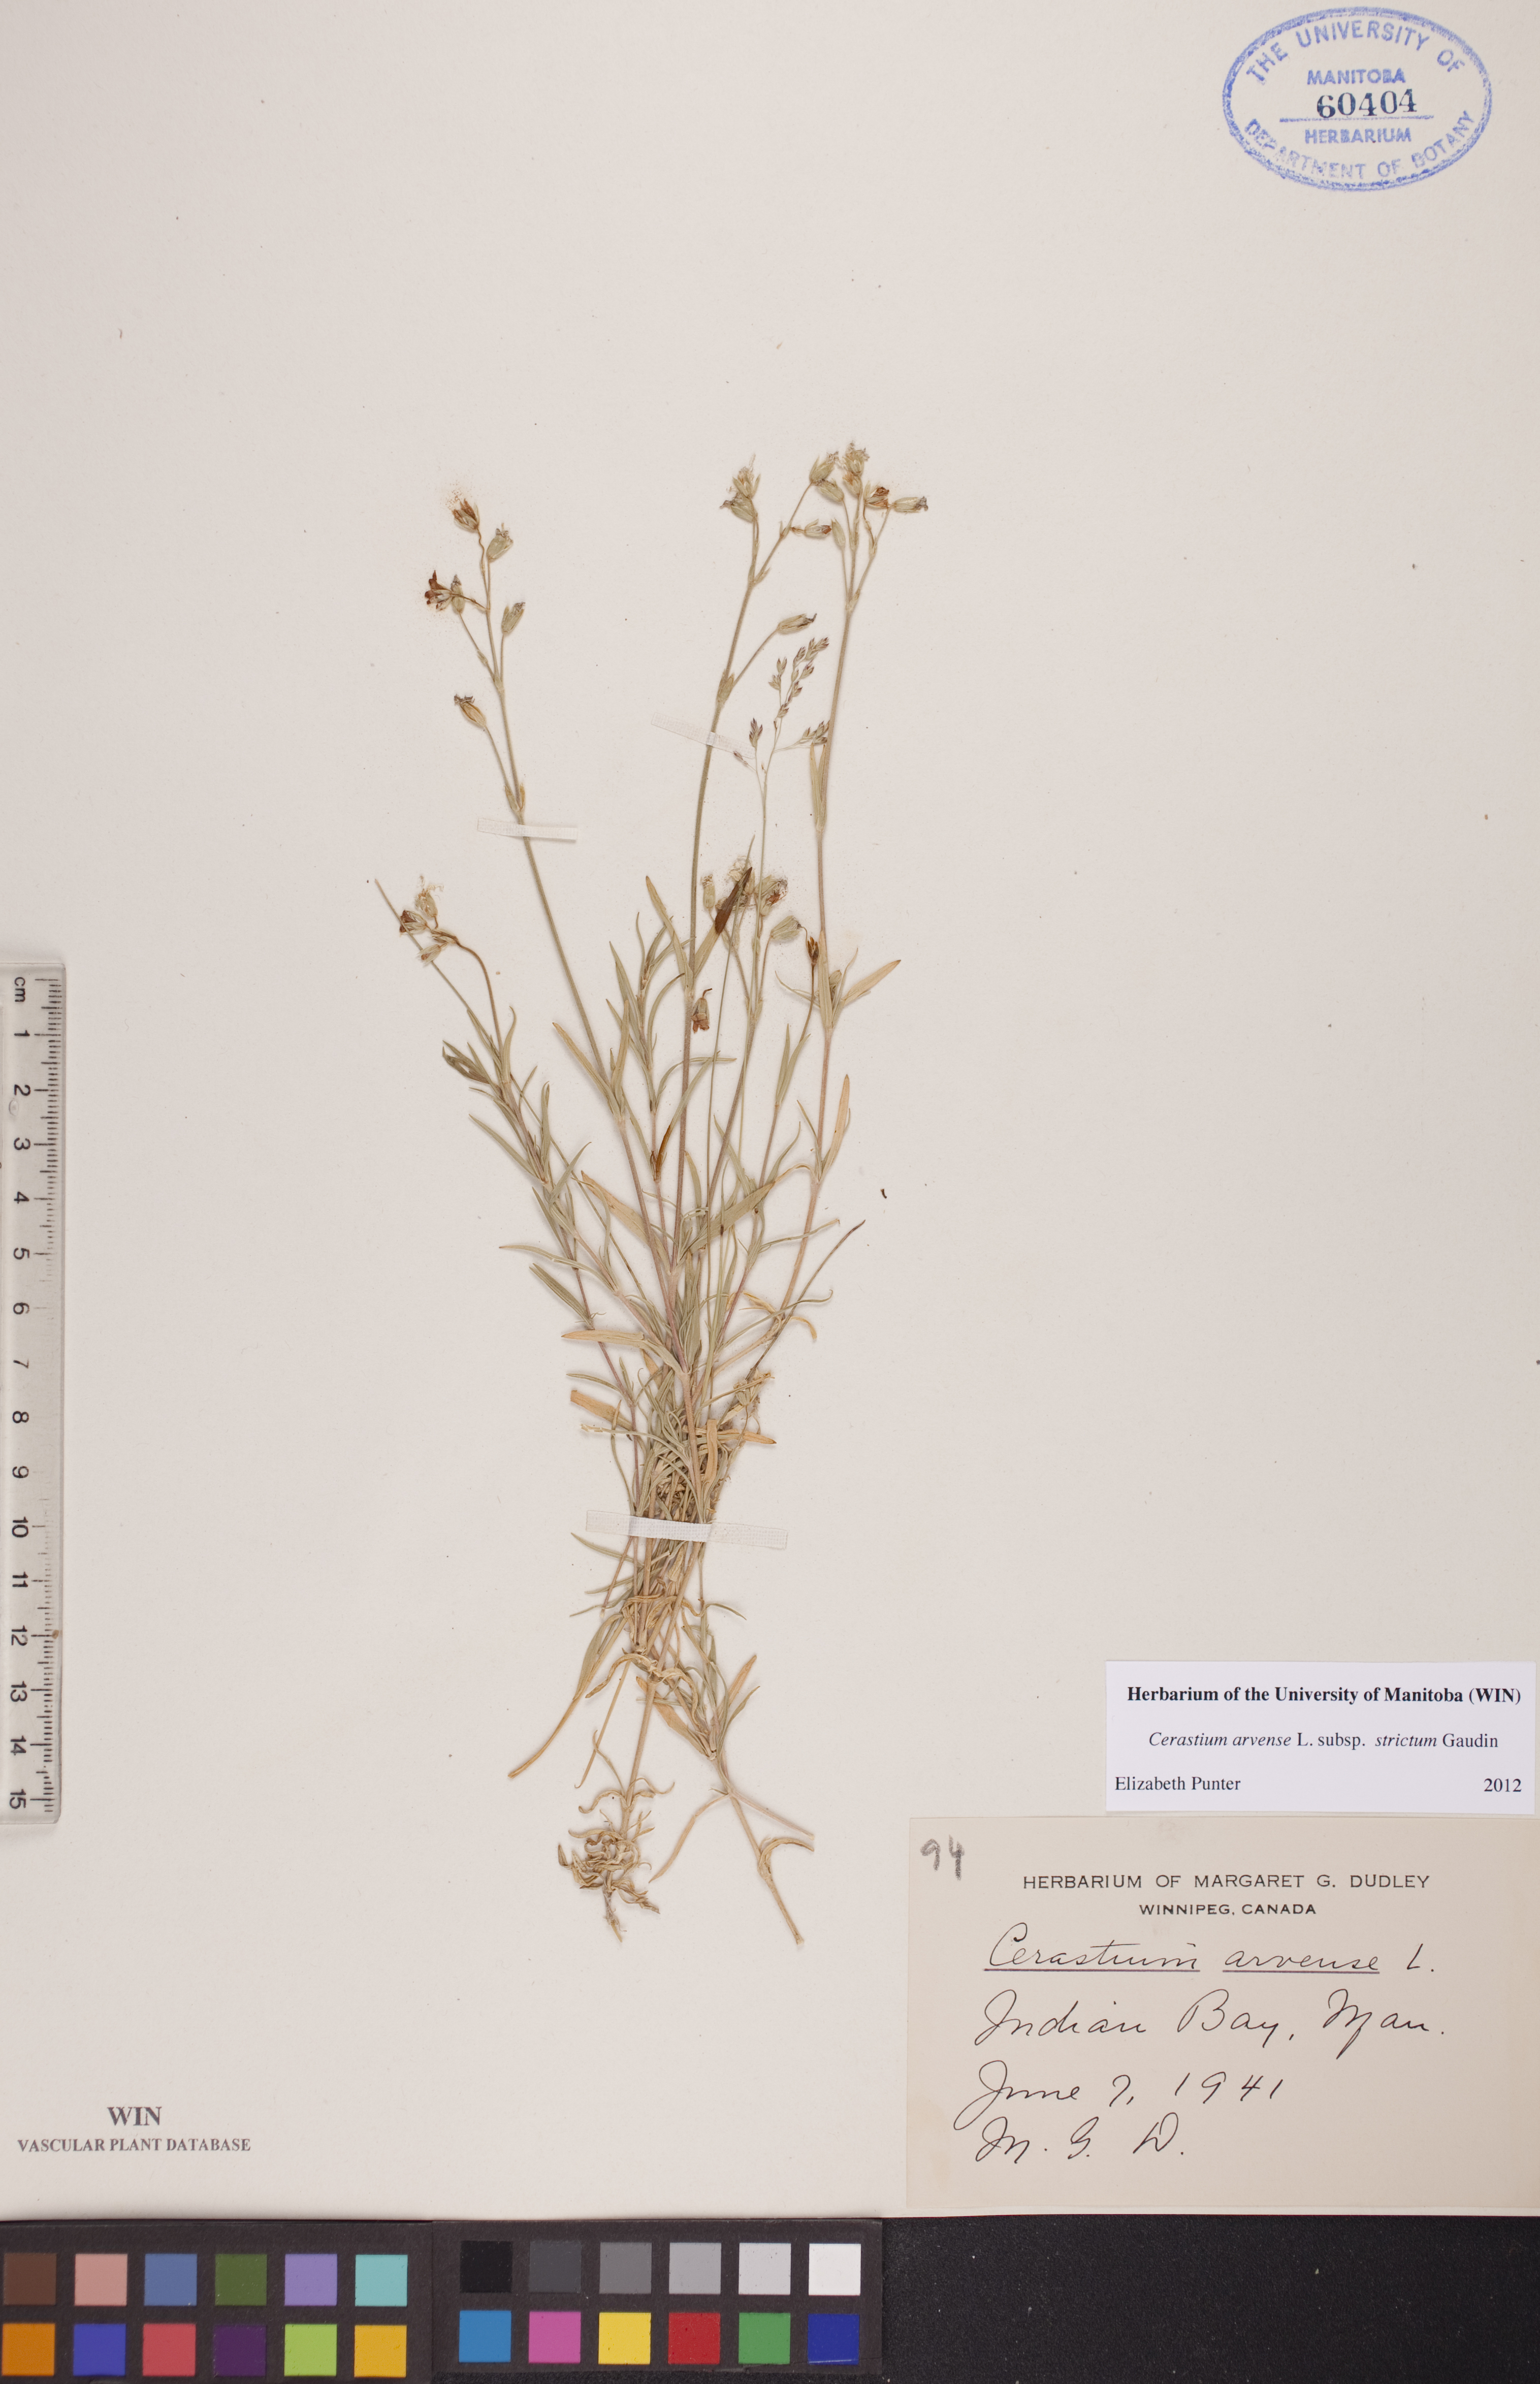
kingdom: Plantae
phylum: Tracheophyta
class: Magnoliopsida
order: Caryophyllales
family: Caryophyllaceae
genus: Cerastium
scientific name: Cerastium elongatum
